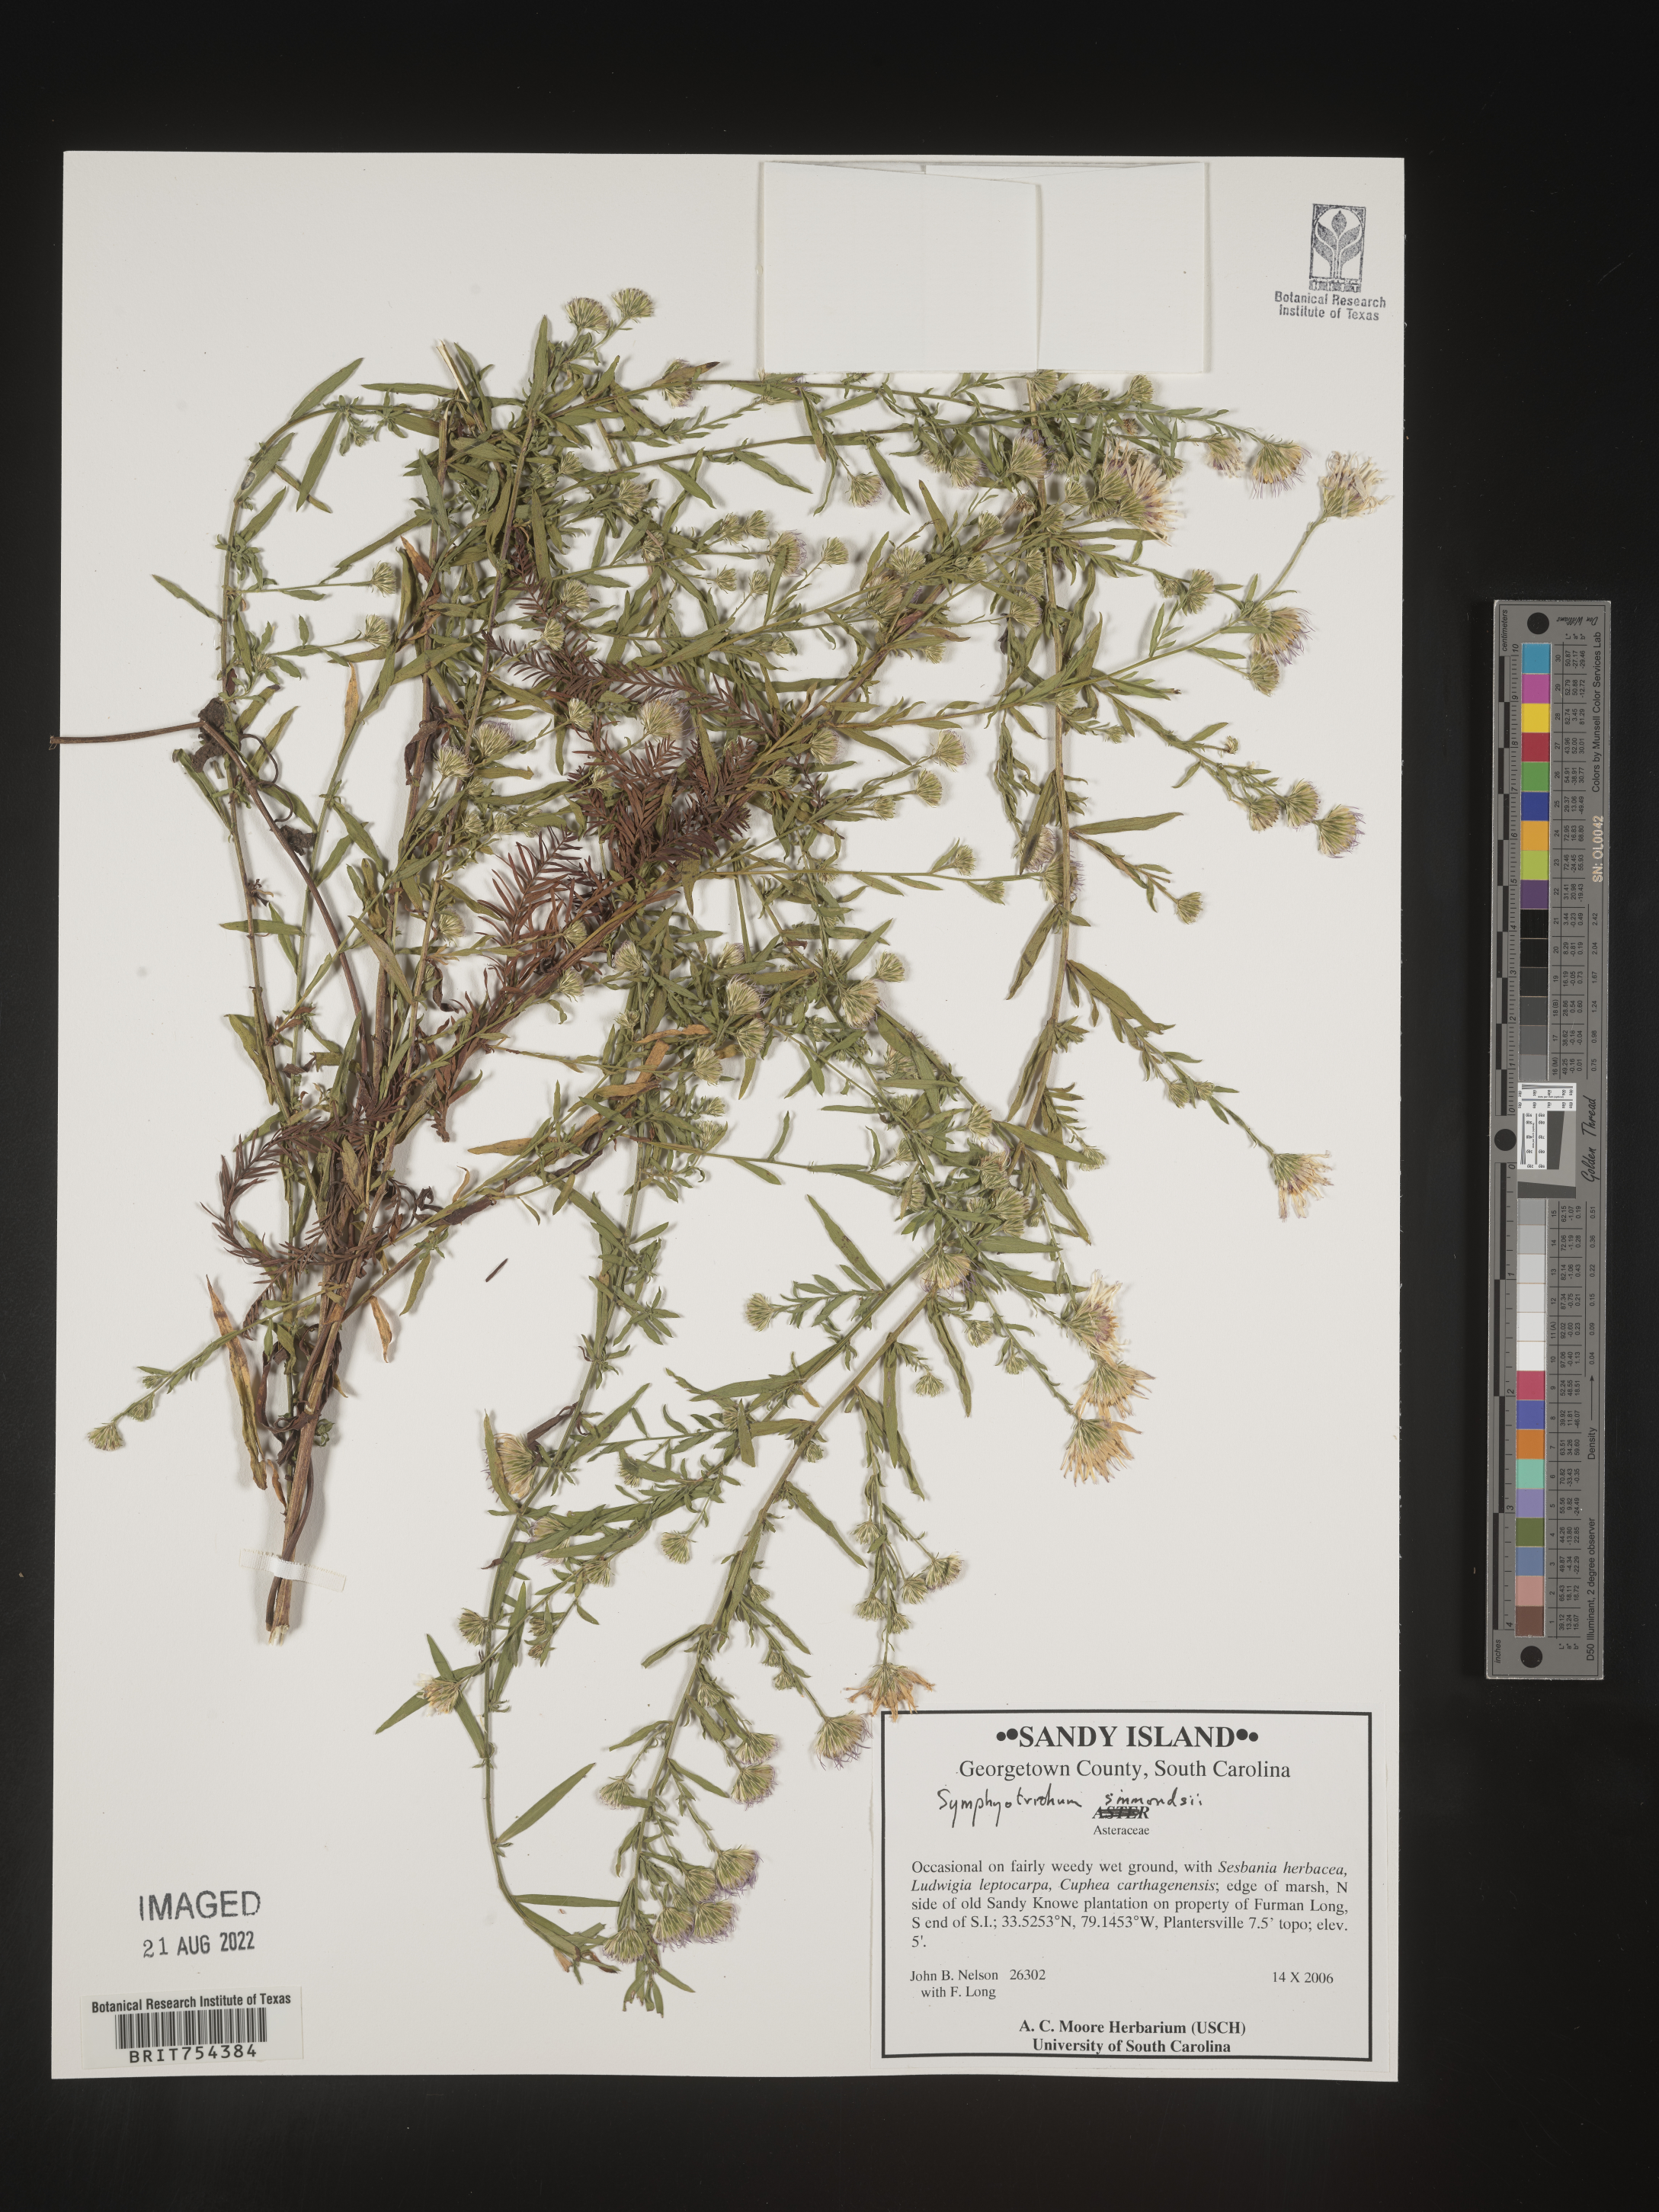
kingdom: Plantae
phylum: Tracheophyta
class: Magnoliopsida
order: Asterales
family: Asteraceae
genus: Symphyotrichum
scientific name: Symphyotrichum simmondsii
